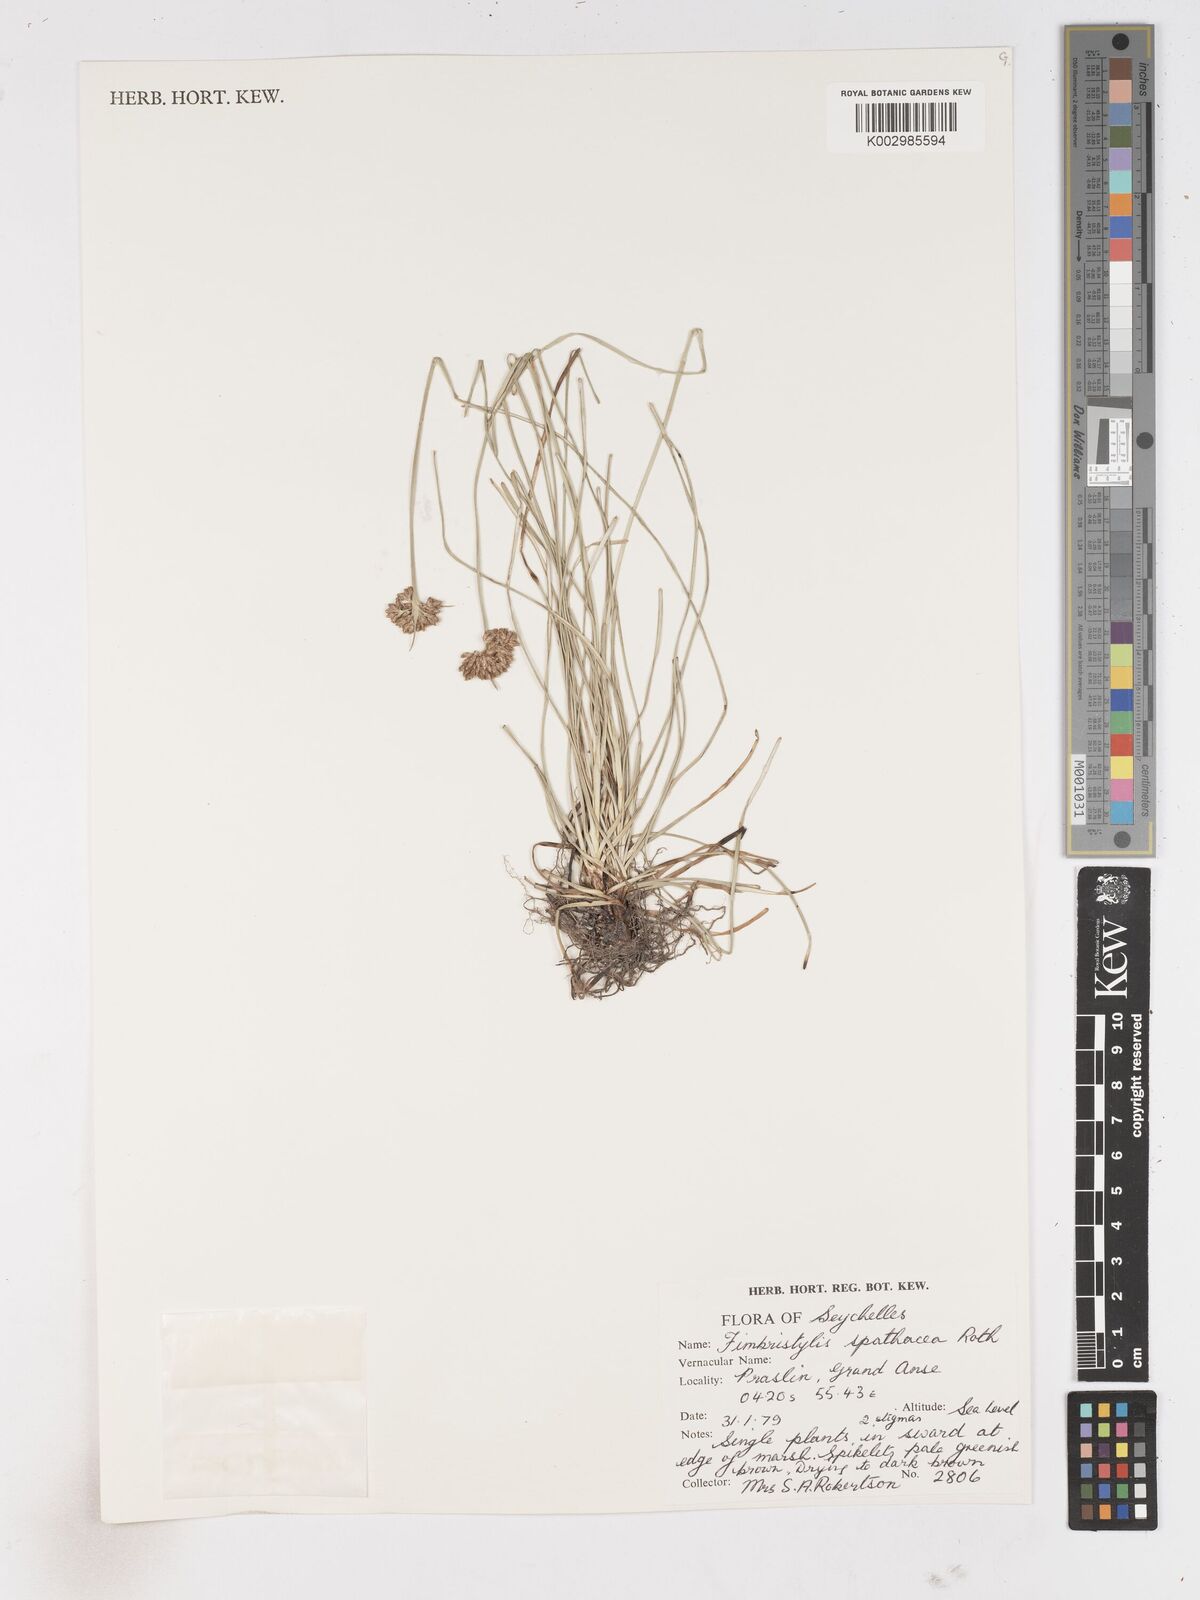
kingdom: Plantae
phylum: Tracheophyta
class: Liliopsida
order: Poales
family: Cyperaceae
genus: Fimbristylis
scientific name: Fimbristylis cymosa
